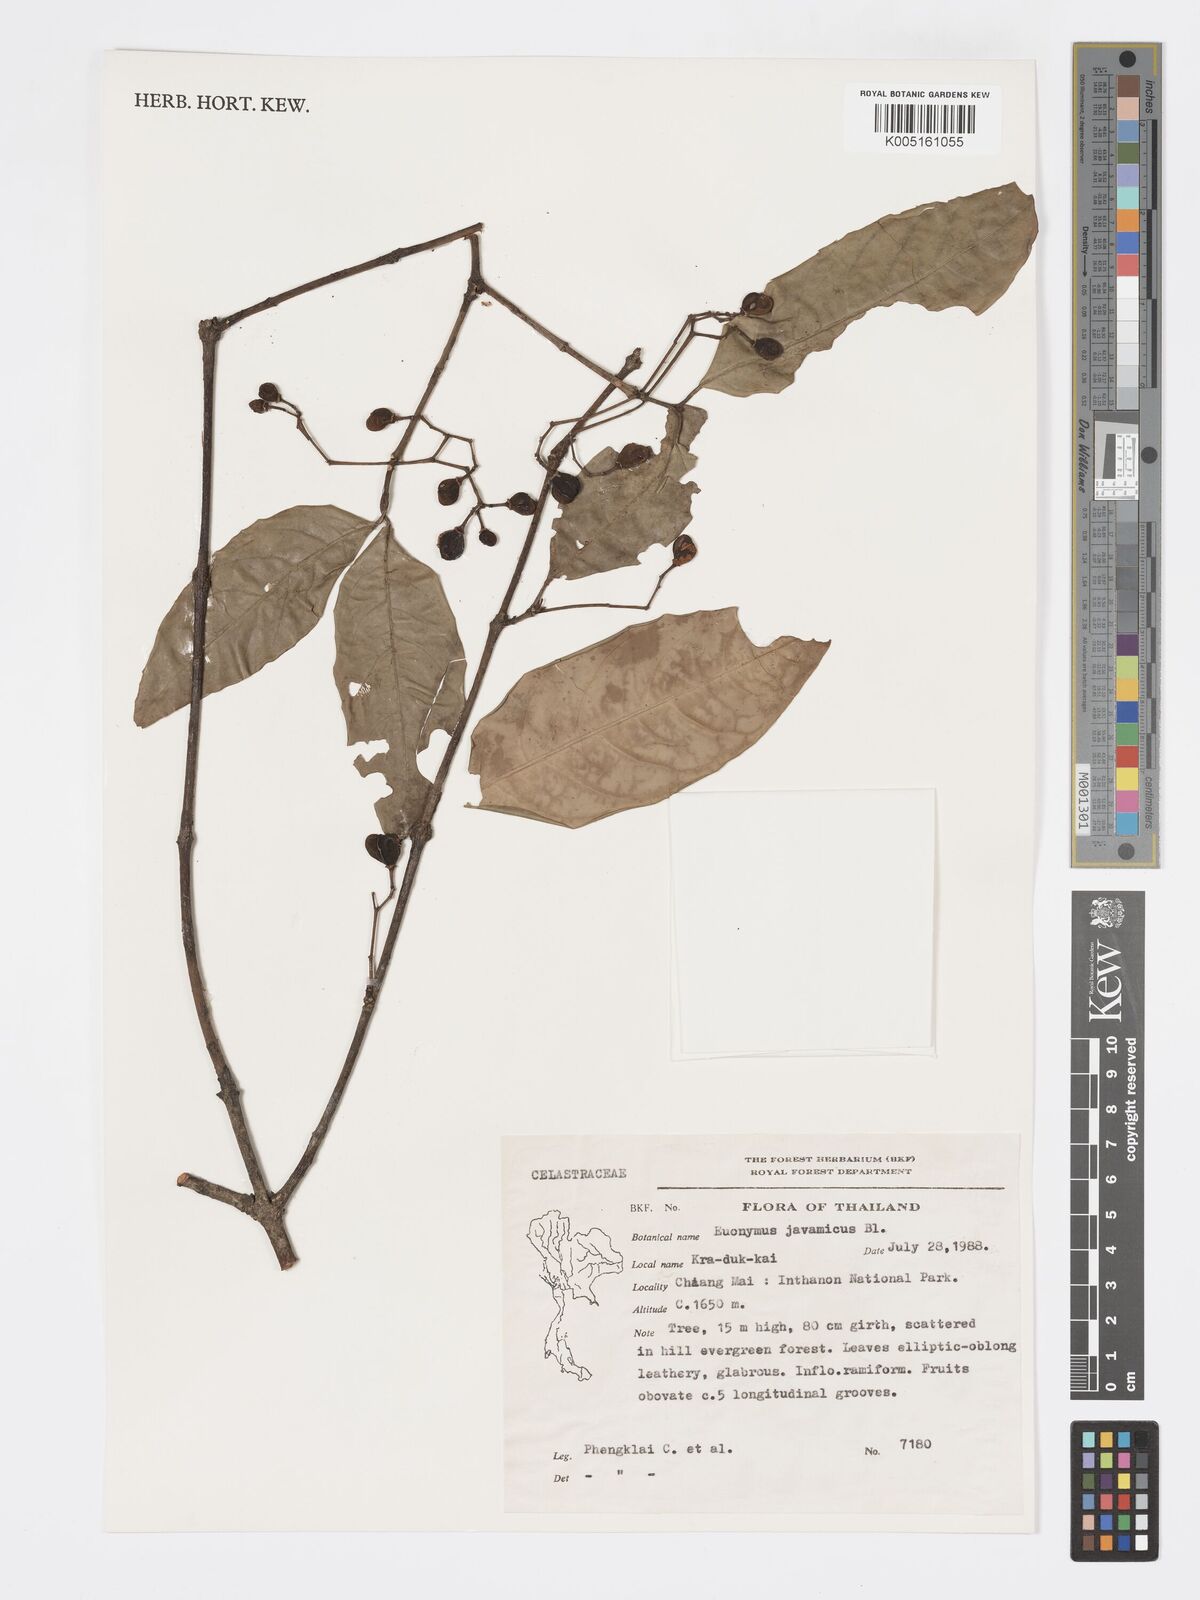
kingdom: Plantae
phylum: Tracheophyta
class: Magnoliopsida
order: Celastrales
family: Celastraceae
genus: Euonymus
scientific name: Euonymus indicus
